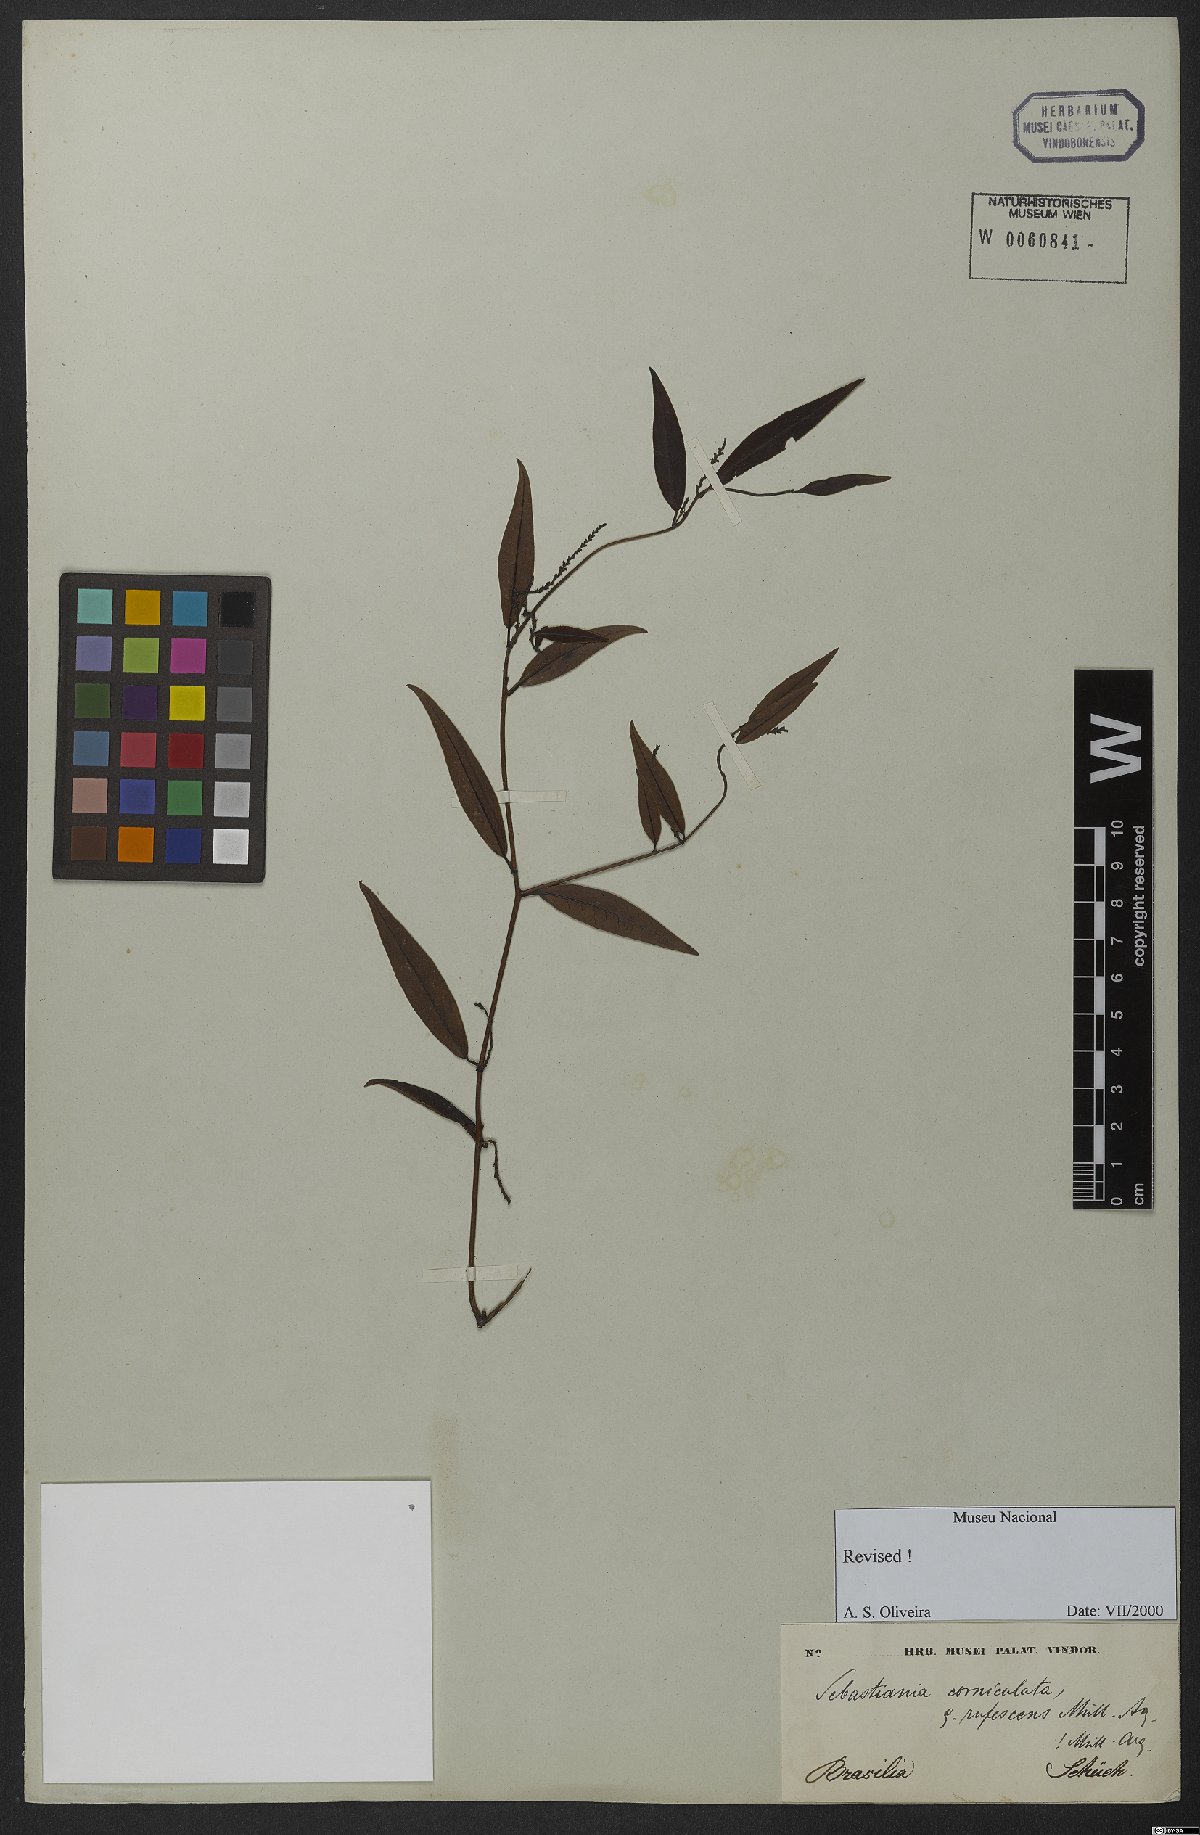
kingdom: Plantae
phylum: Tracheophyta
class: Magnoliopsida
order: Malpighiales
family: Euphorbiaceae
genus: Microstachys
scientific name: Microstachys hispida
